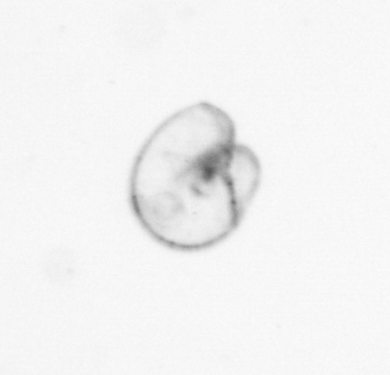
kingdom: Chromista
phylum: Myzozoa
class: Dinophyceae
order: Noctilucales
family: Noctilucaceae
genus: Noctiluca
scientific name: Noctiluca scintillans
